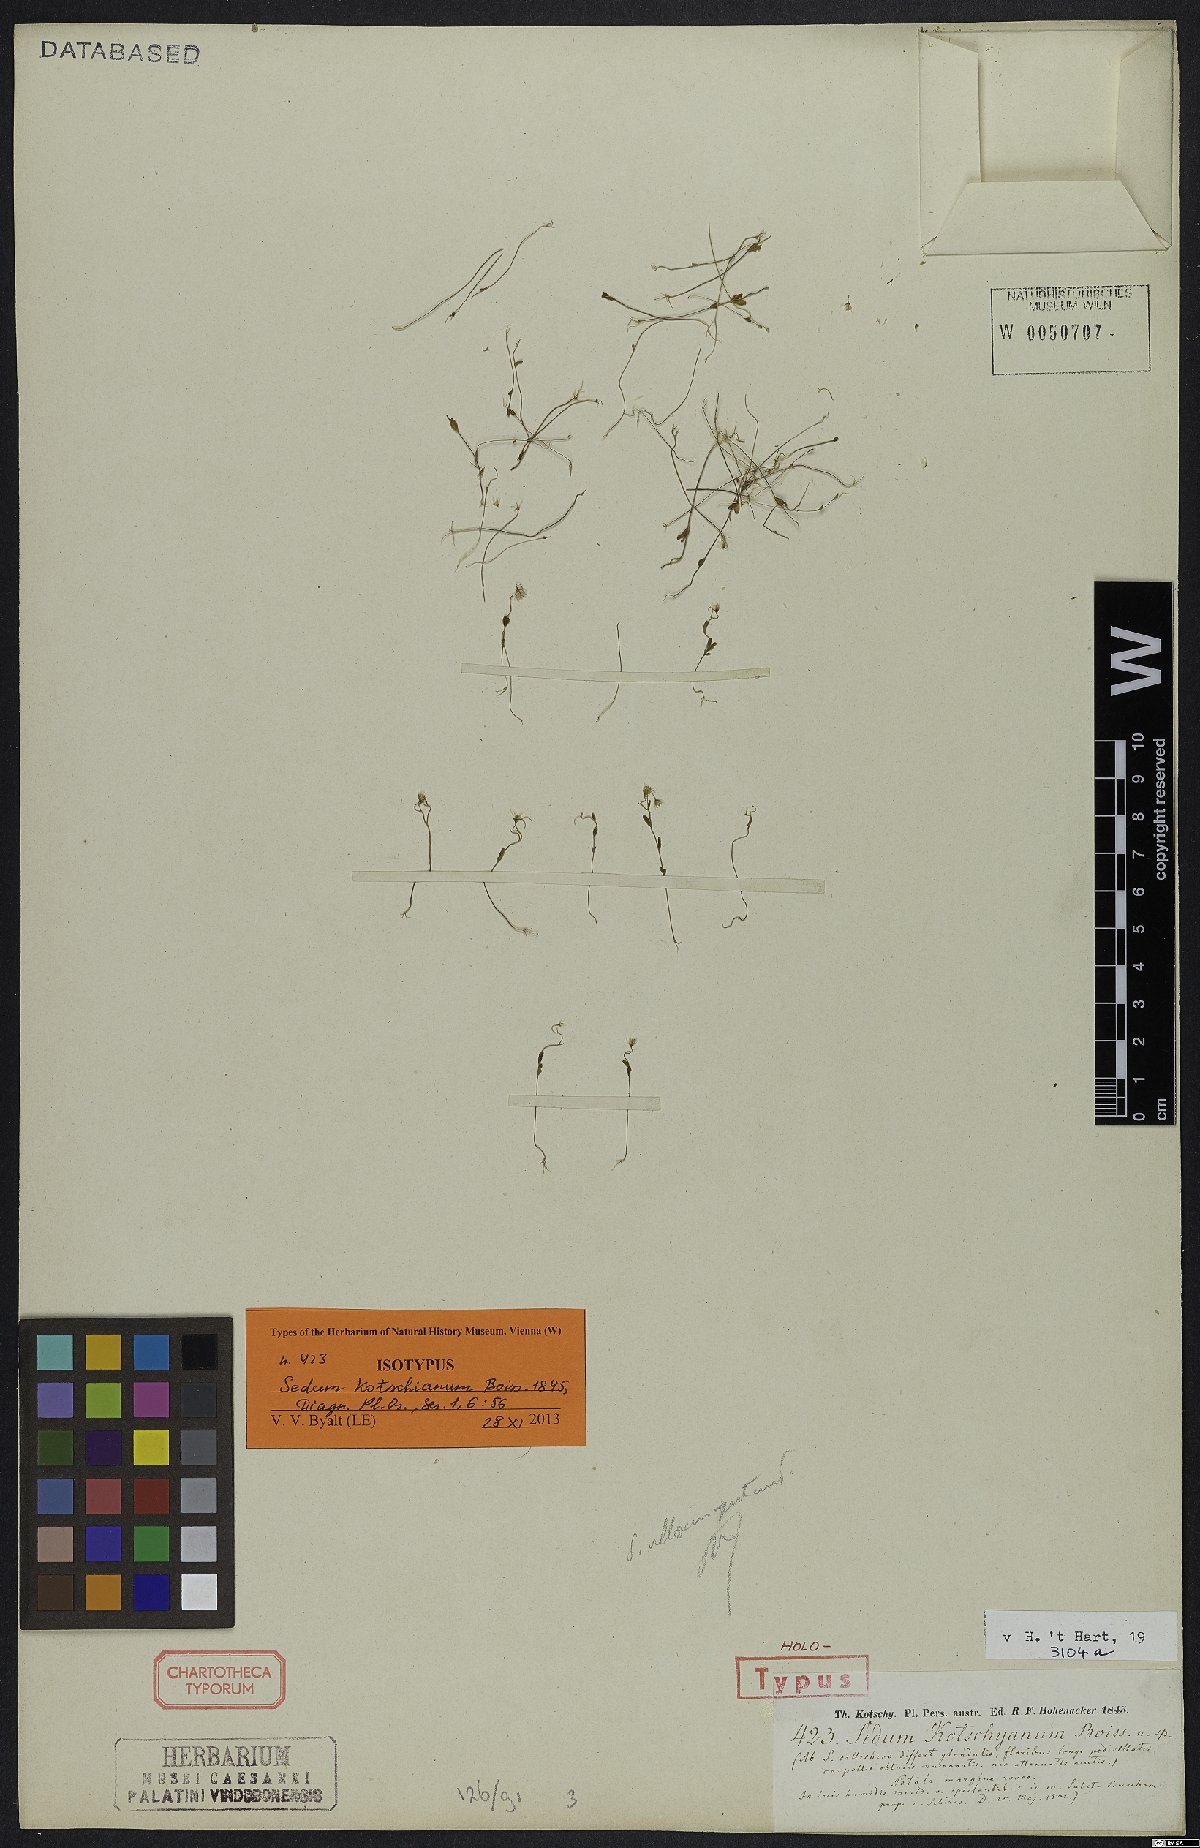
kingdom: Plantae
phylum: Tracheophyta
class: Magnoliopsida
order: Saxifragales
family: Crassulaceae
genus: Sedum
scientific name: Sedum kotschyanum
